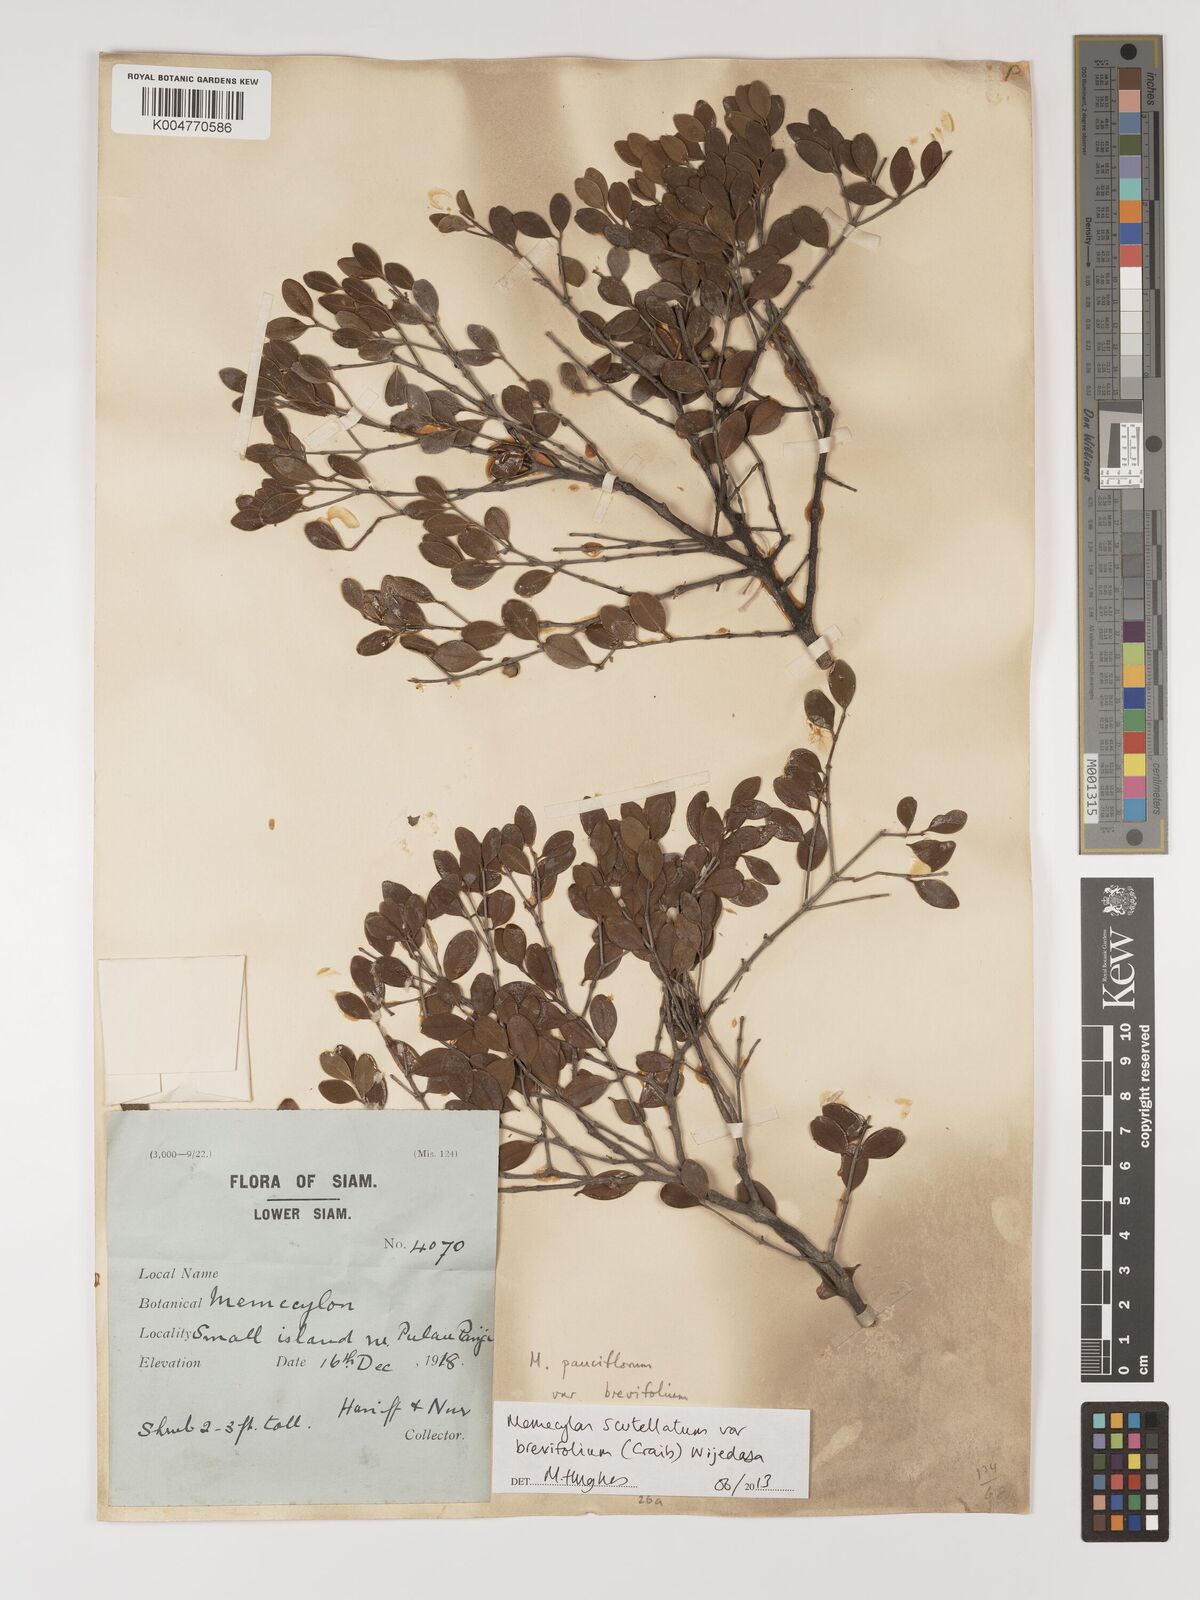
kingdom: Plantae
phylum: Tracheophyta
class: Magnoliopsida
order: Myrtales
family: Melastomataceae
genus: Memecylon
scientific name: Memecylon scutellatum
